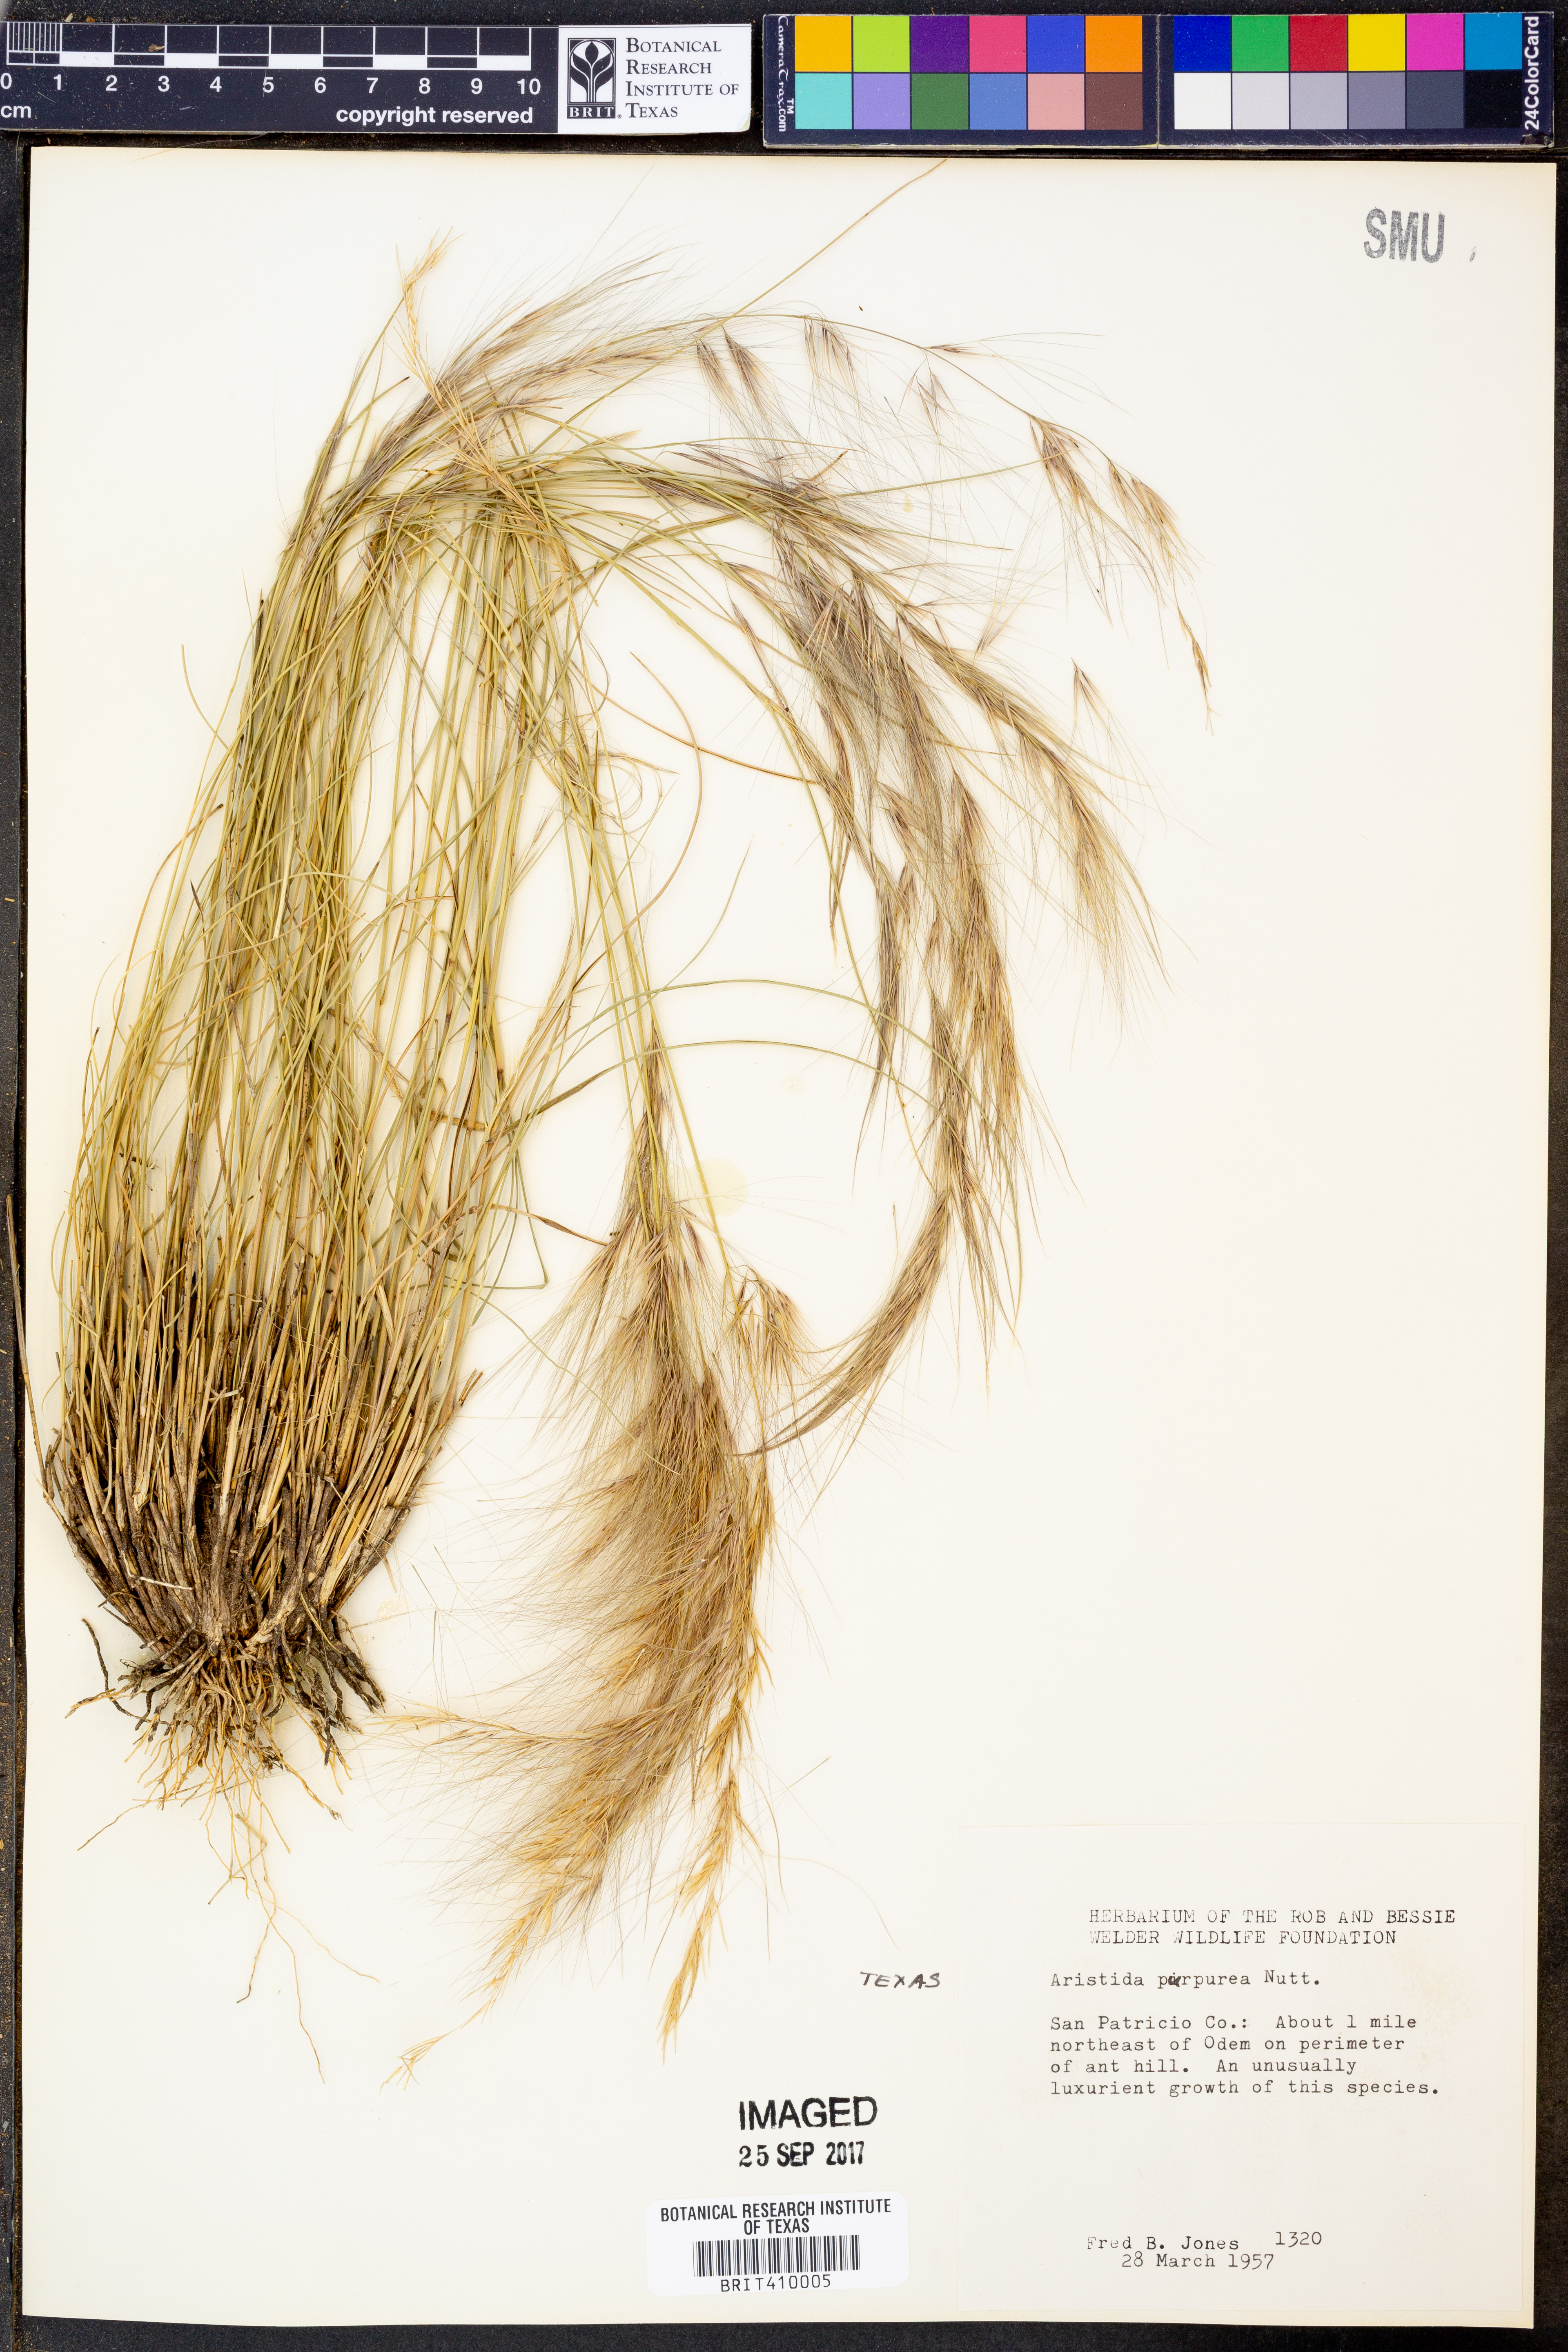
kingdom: Plantae
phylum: Tracheophyta
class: Liliopsida
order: Poales
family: Poaceae
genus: Aristida
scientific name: Aristida purpurea
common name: Purple threeawn
